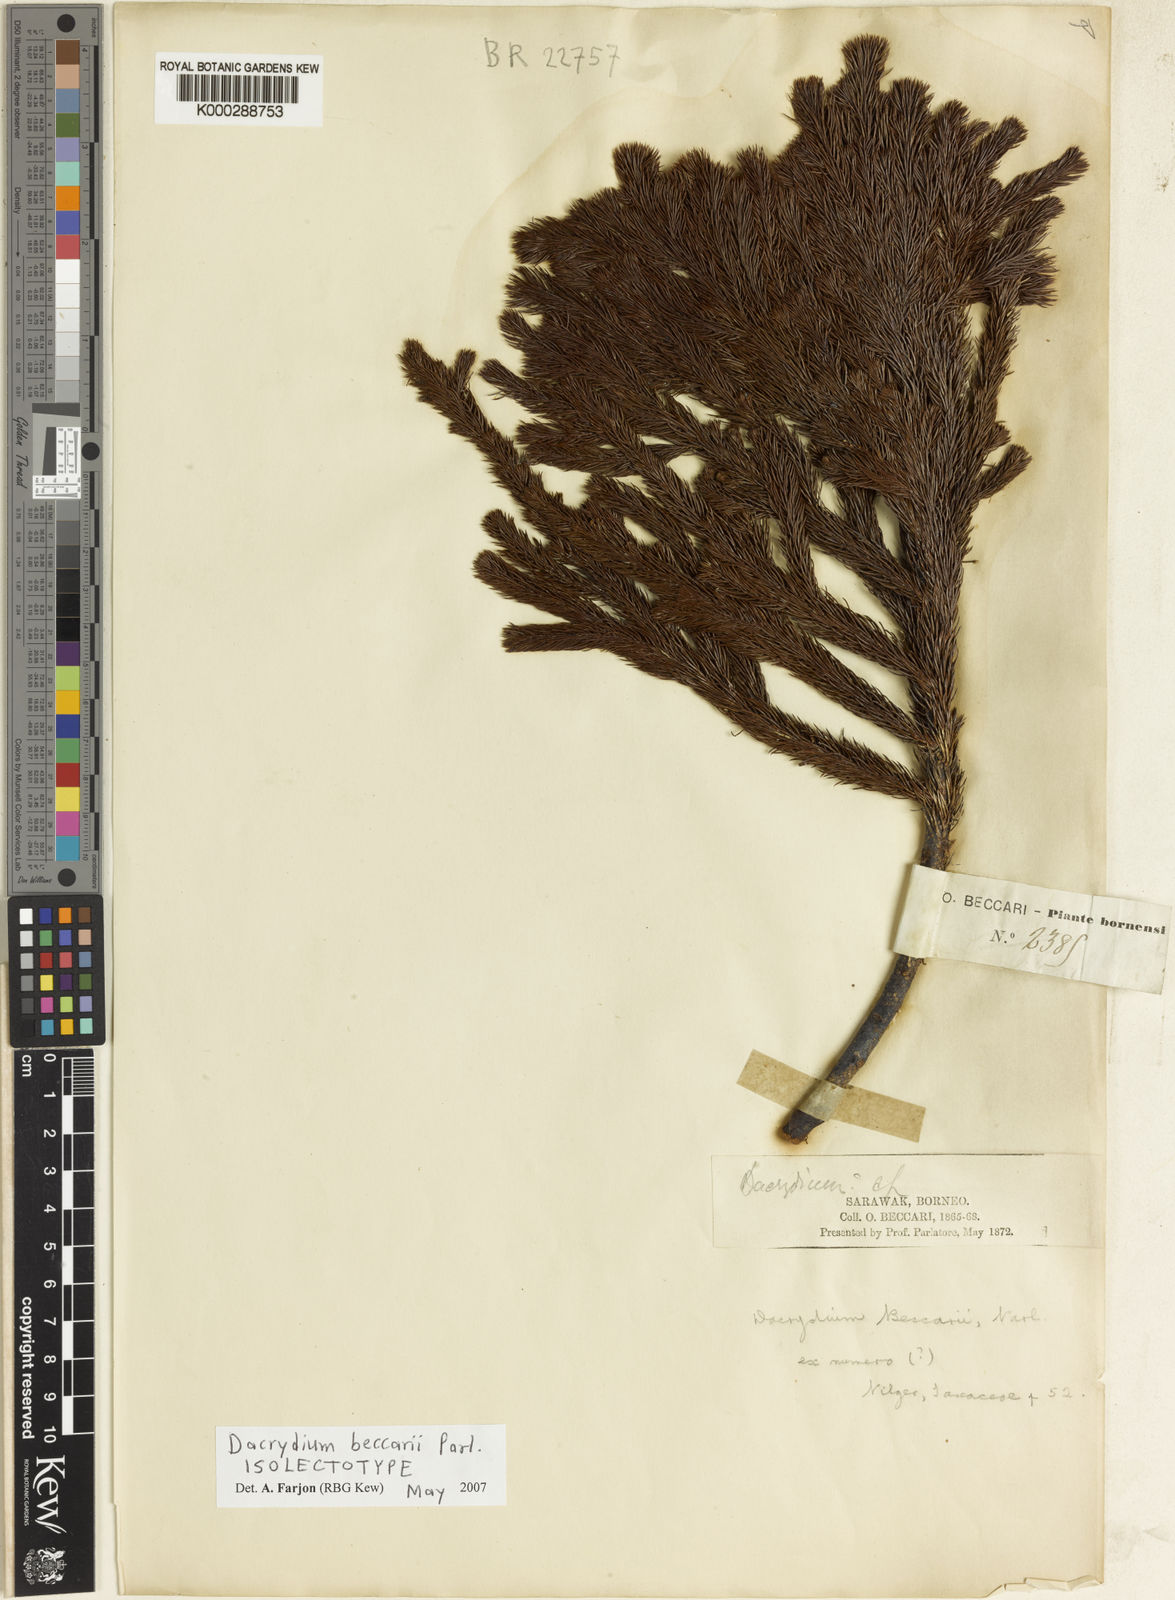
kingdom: Plantae
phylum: Tracheophyta
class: Pinopsida
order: Pinales
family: Podocarpaceae
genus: Dacrydium
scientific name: Dacrydium beccarii
